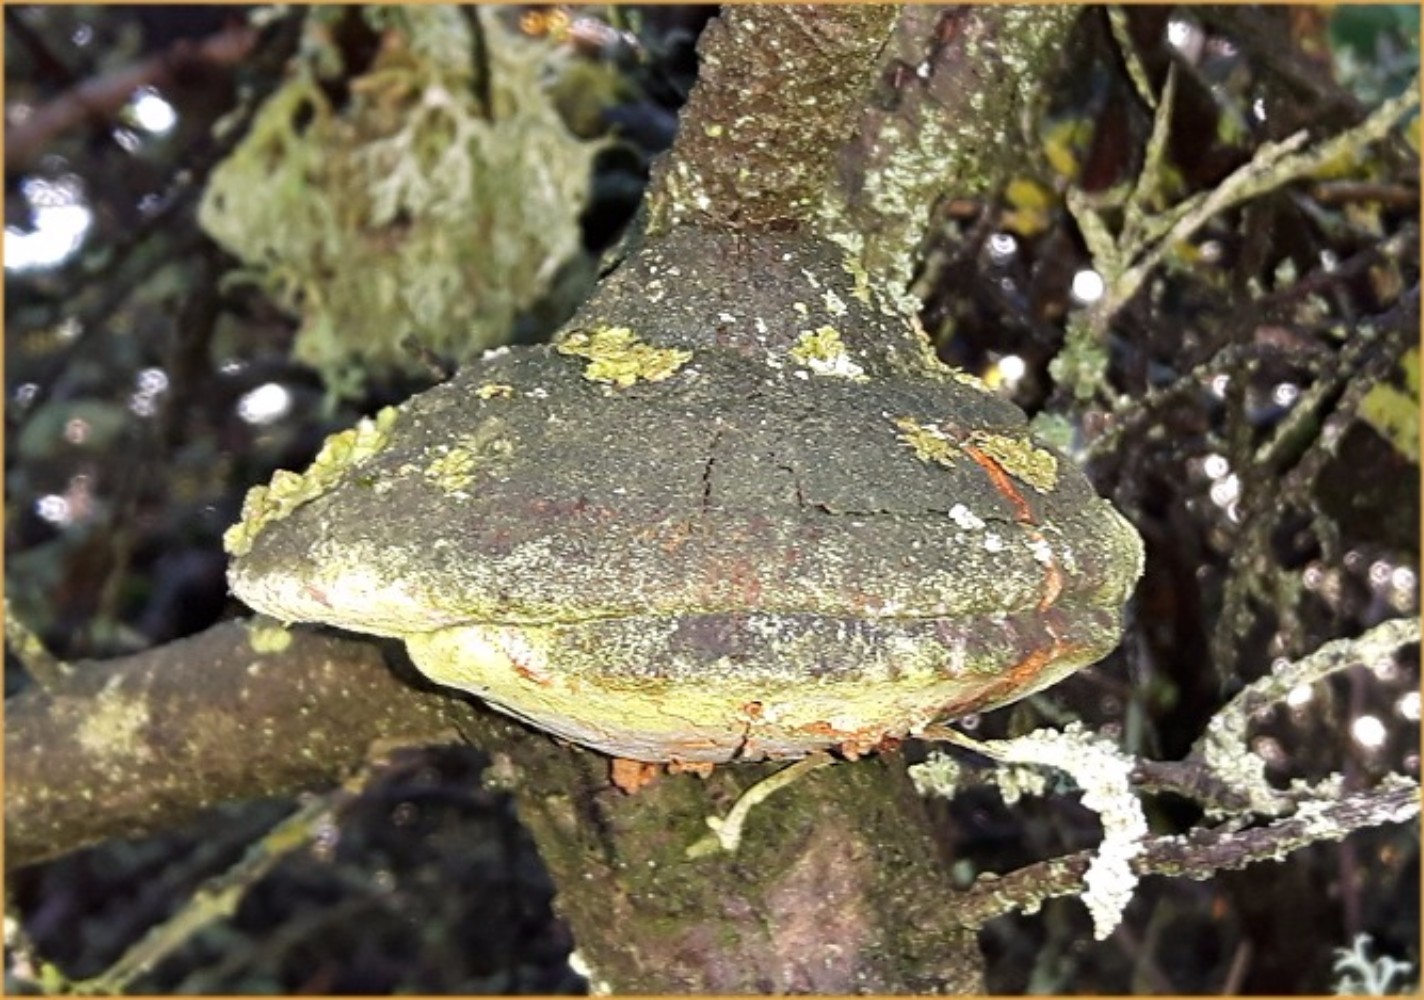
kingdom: Fungi
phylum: Basidiomycota
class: Agaricomycetes
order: Hymenochaetales
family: Hymenochaetaceae
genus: Fomitiporia
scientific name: Fomitiporia hippophaeicola
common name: havtorn-ildporesvamp
